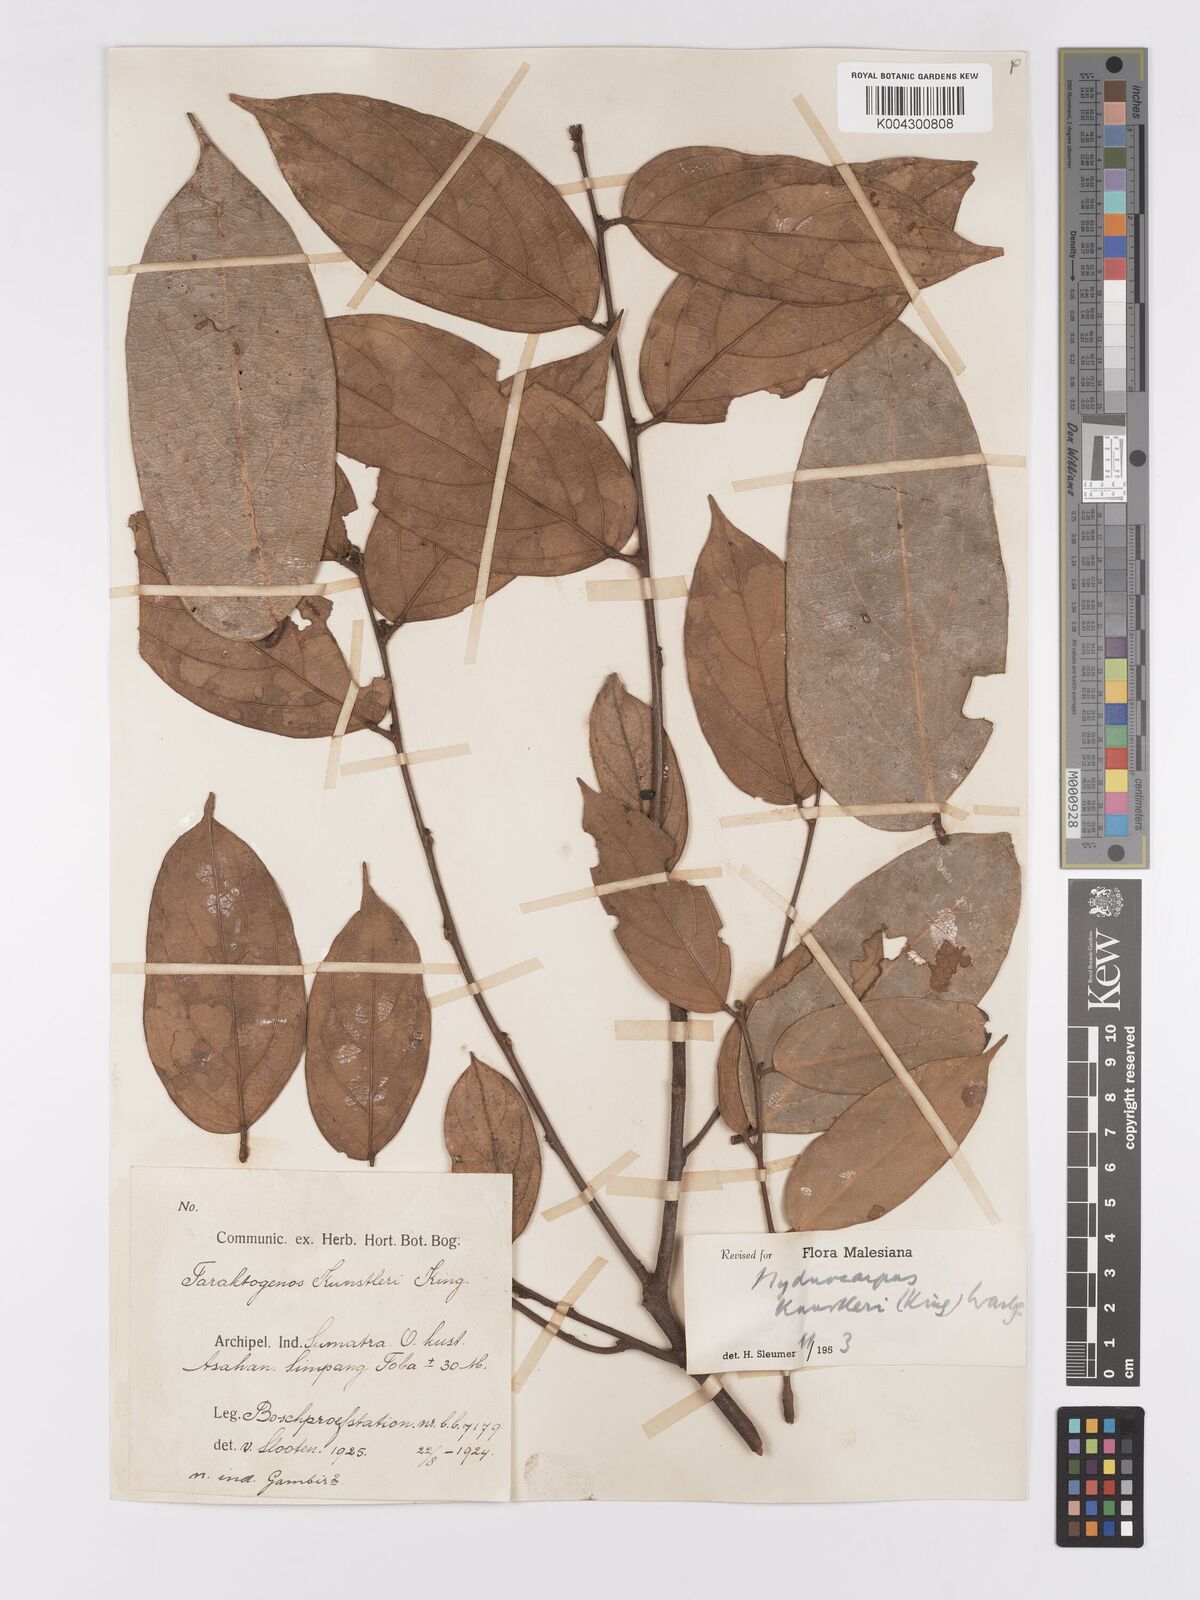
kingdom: Plantae
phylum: Tracheophyta
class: Magnoliopsida
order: Malpighiales
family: Achariaceae
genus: Hydnocarpus
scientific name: Hydnocarpus kunstleri
